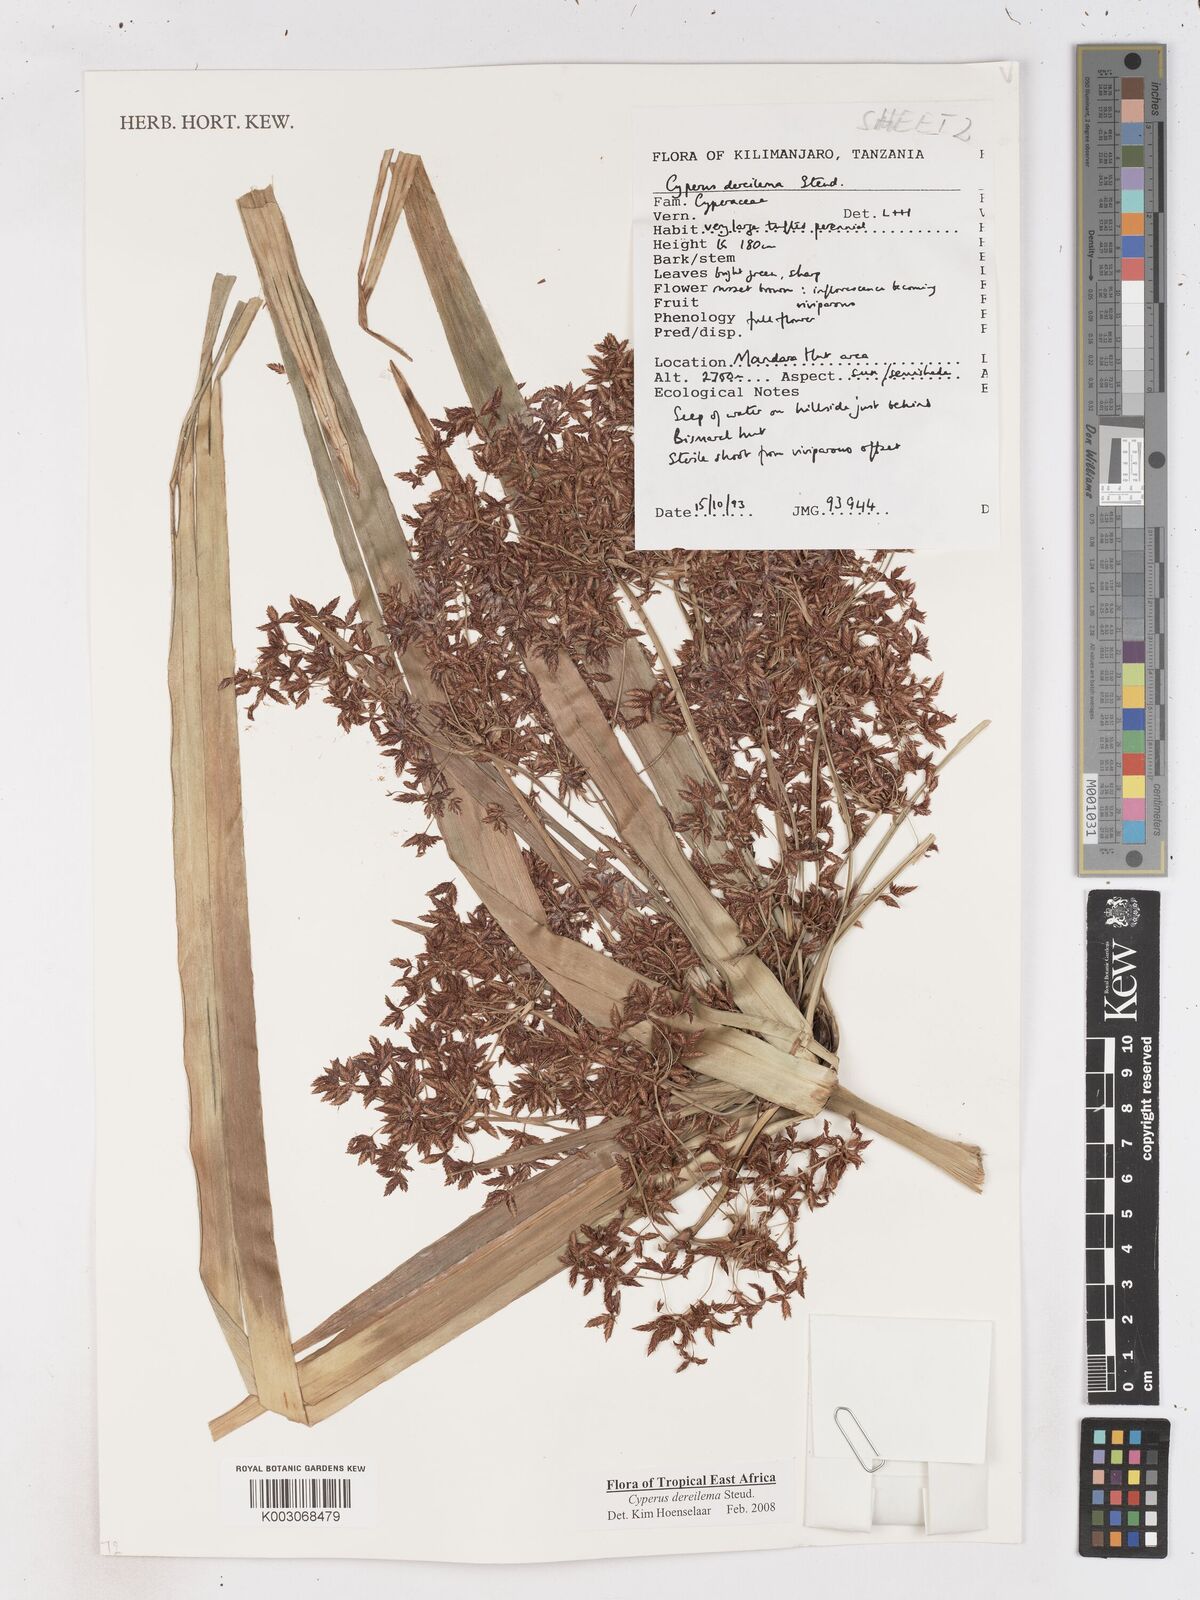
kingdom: Plantae
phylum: Tracheophyta
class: Liliopsida
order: Poales
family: Cyperaceae
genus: Cyperus
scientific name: Cyperus derreilema
